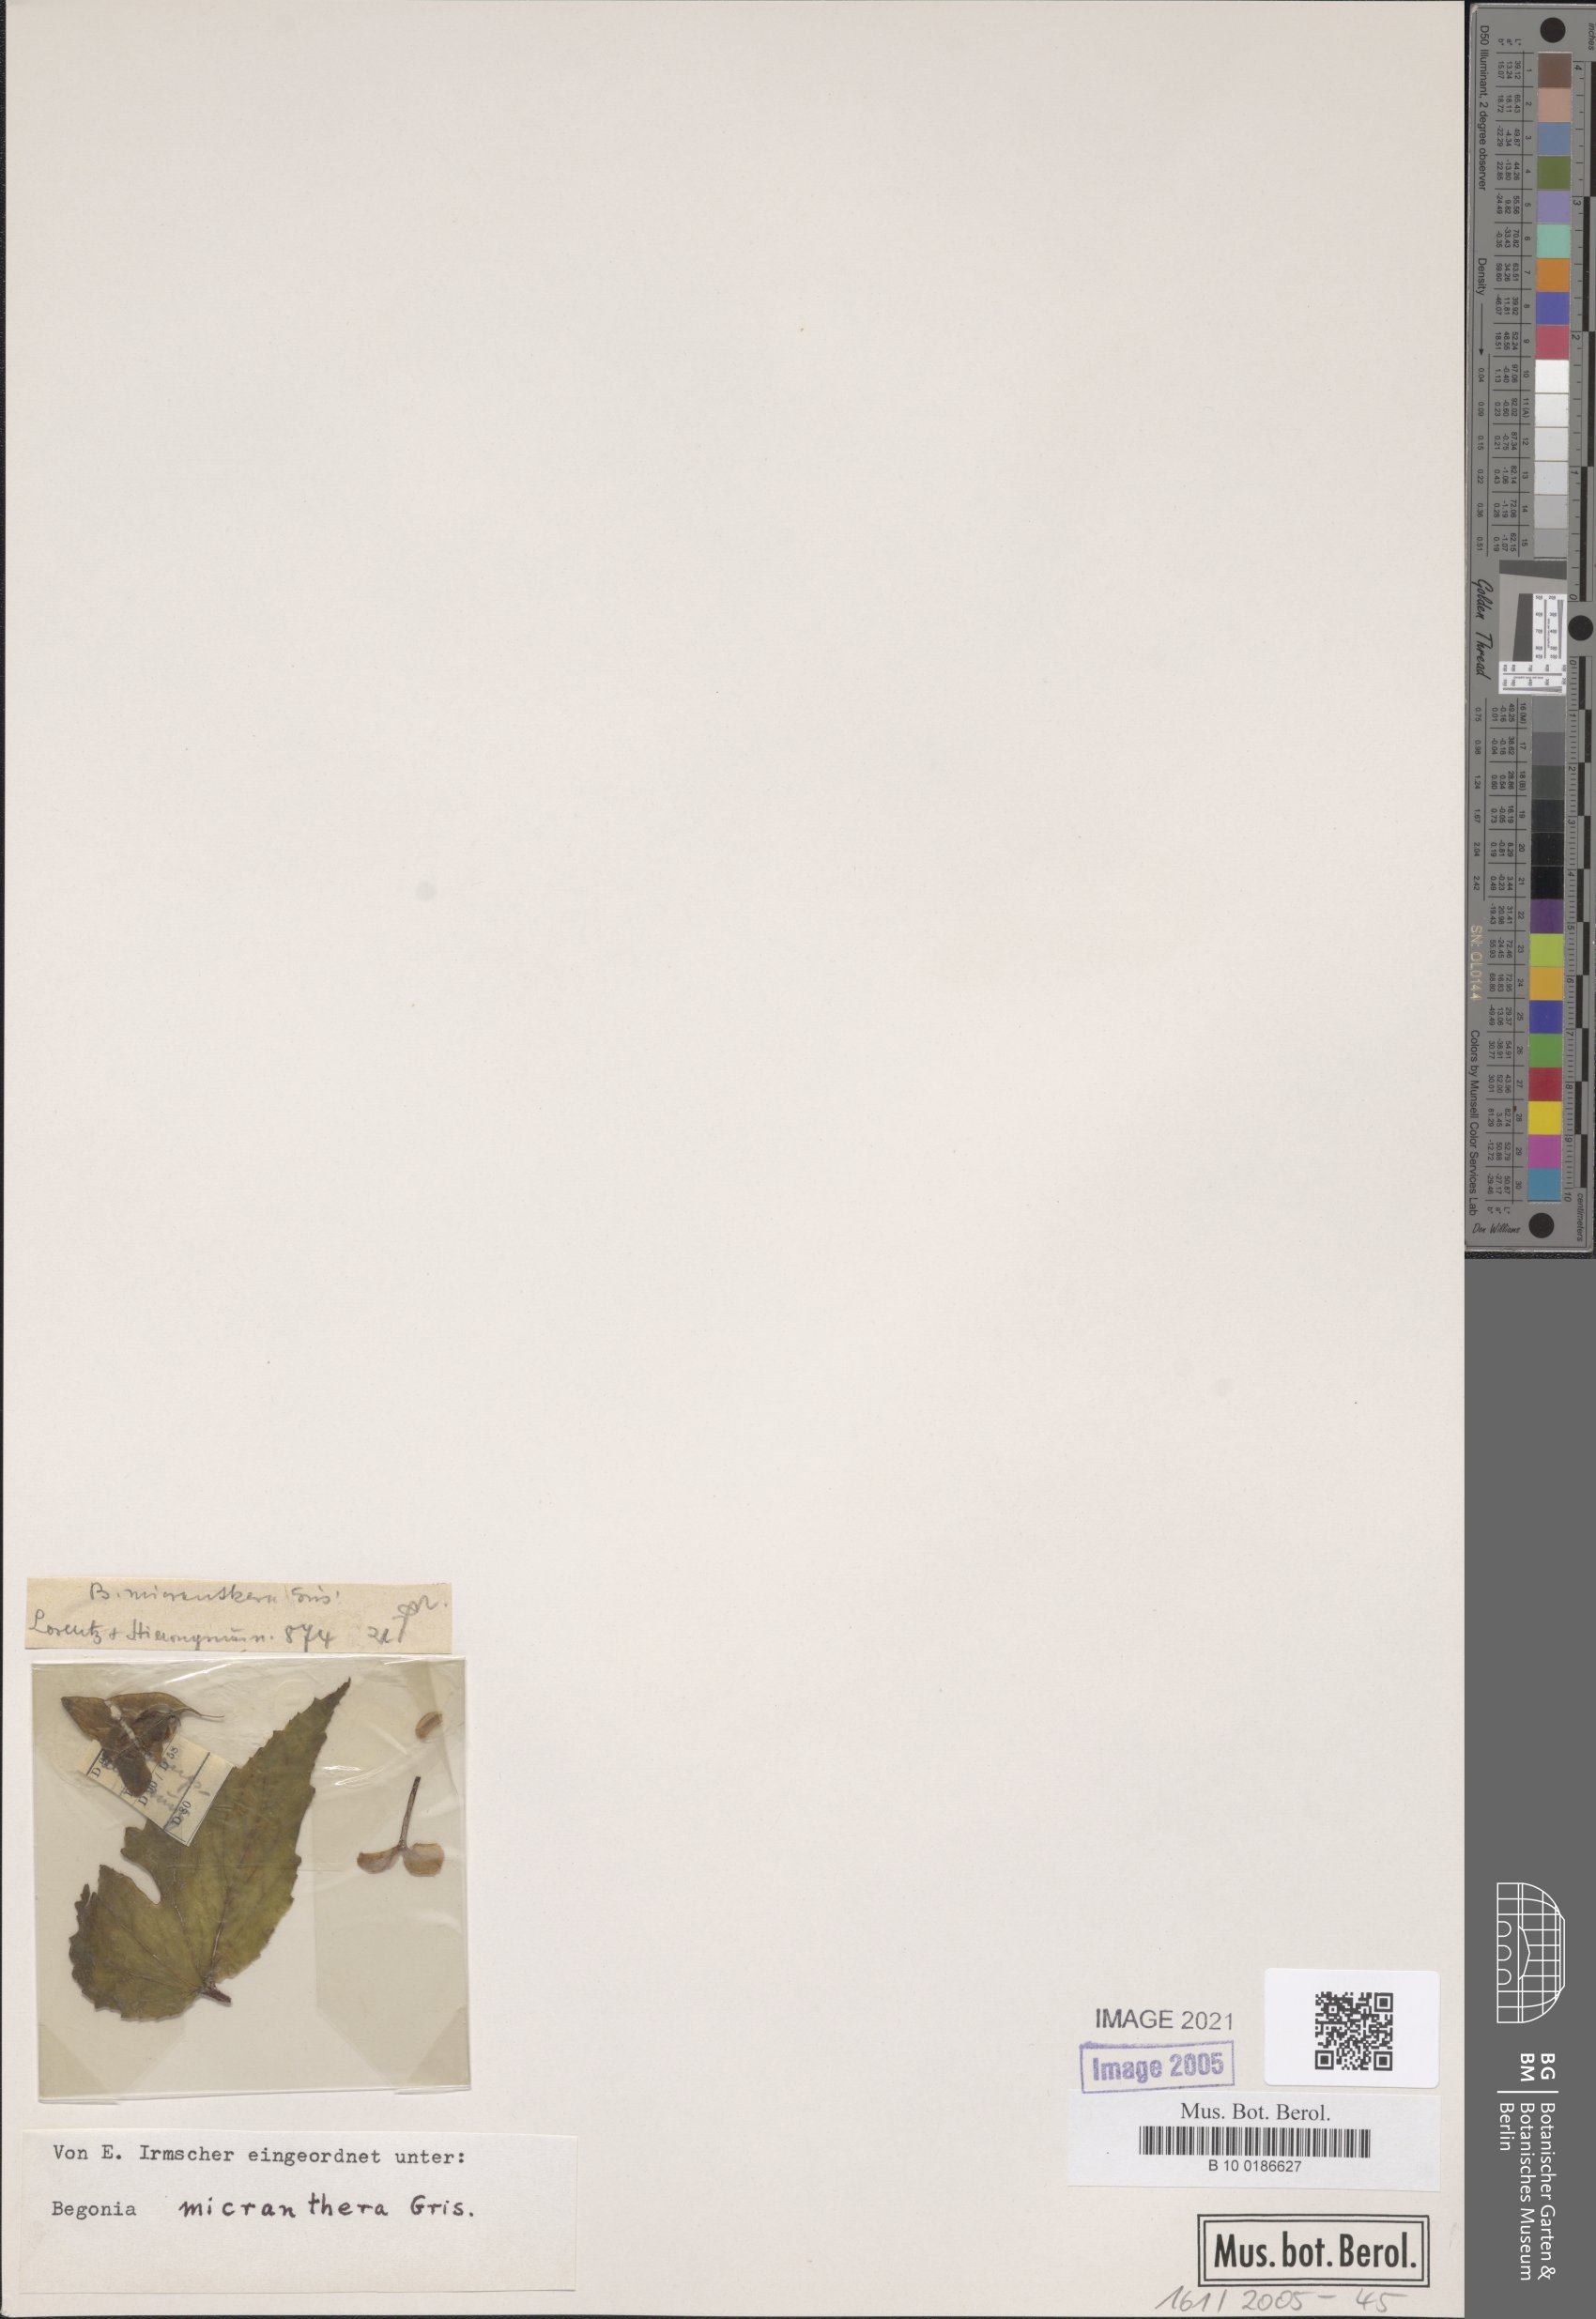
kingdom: Plantae
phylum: Tracheophyta
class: Magnoliopsida
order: Cucurbitales
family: Begoniaceae
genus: Begonia
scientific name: Begonia micranthera
